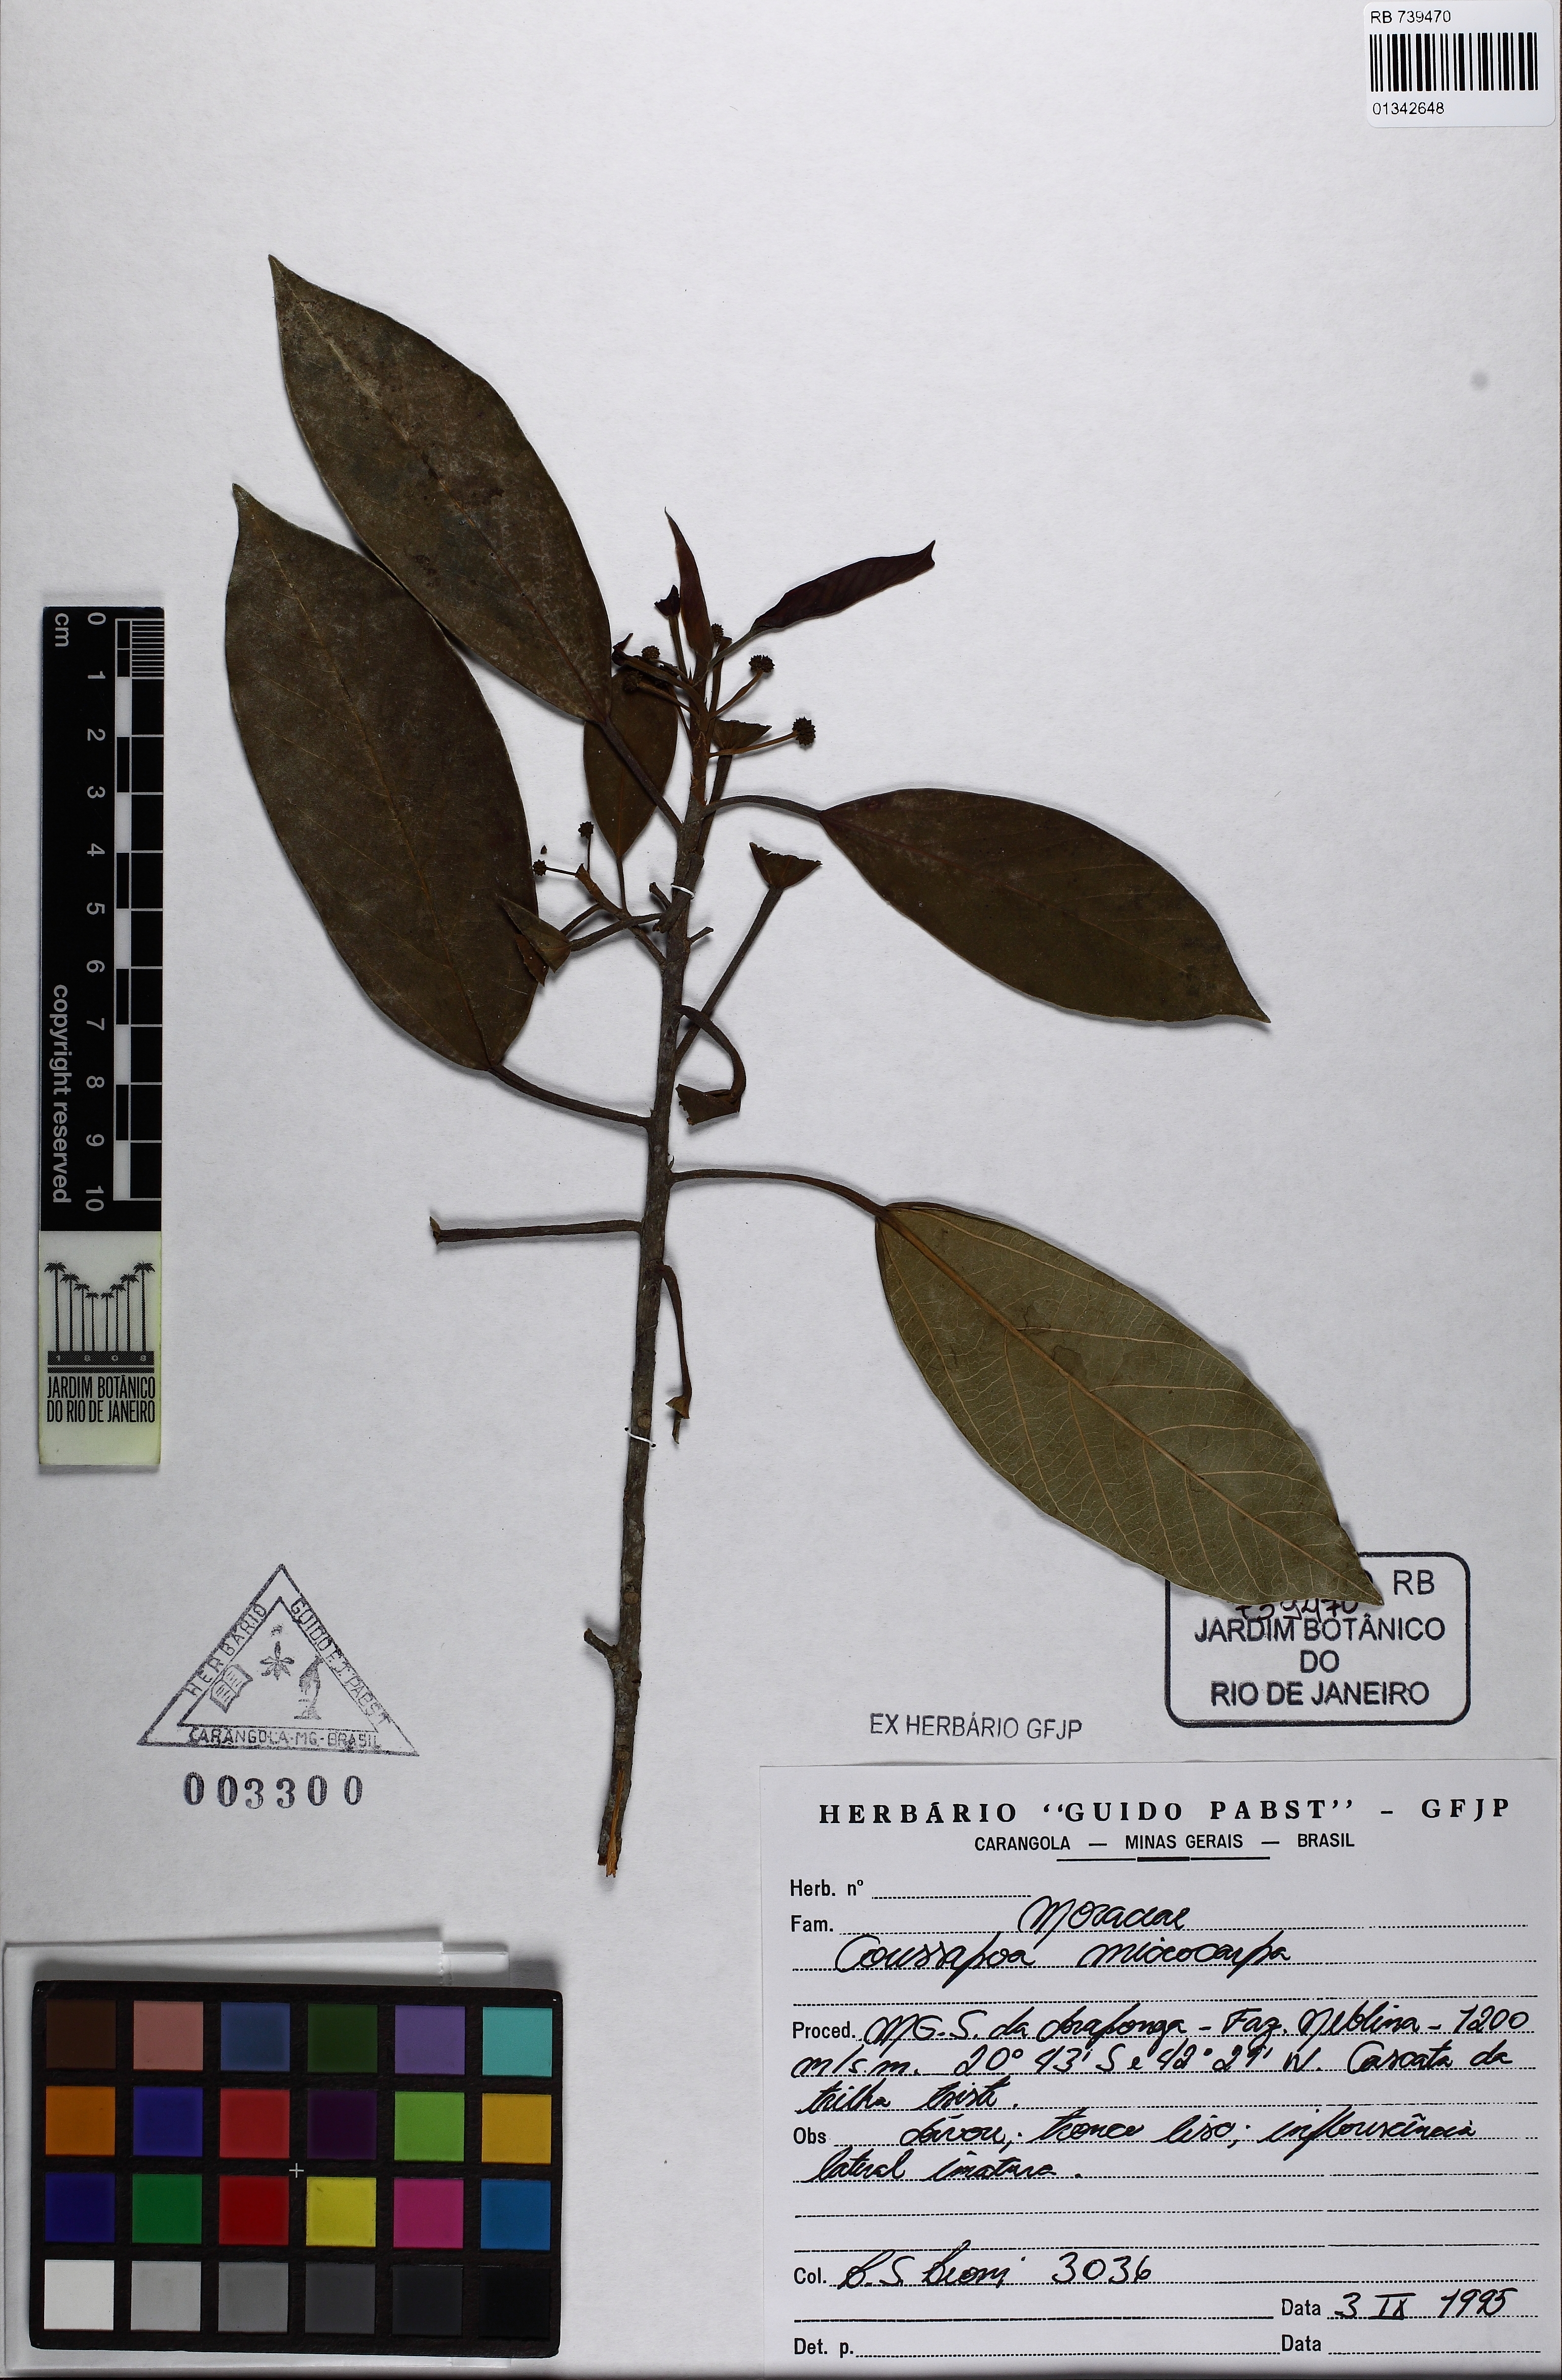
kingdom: Plantae
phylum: Tracheophyta
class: Magnoliopsida
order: Rosales
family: Urticaceae
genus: Coussapoa
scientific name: Coussapoa microcarpa
